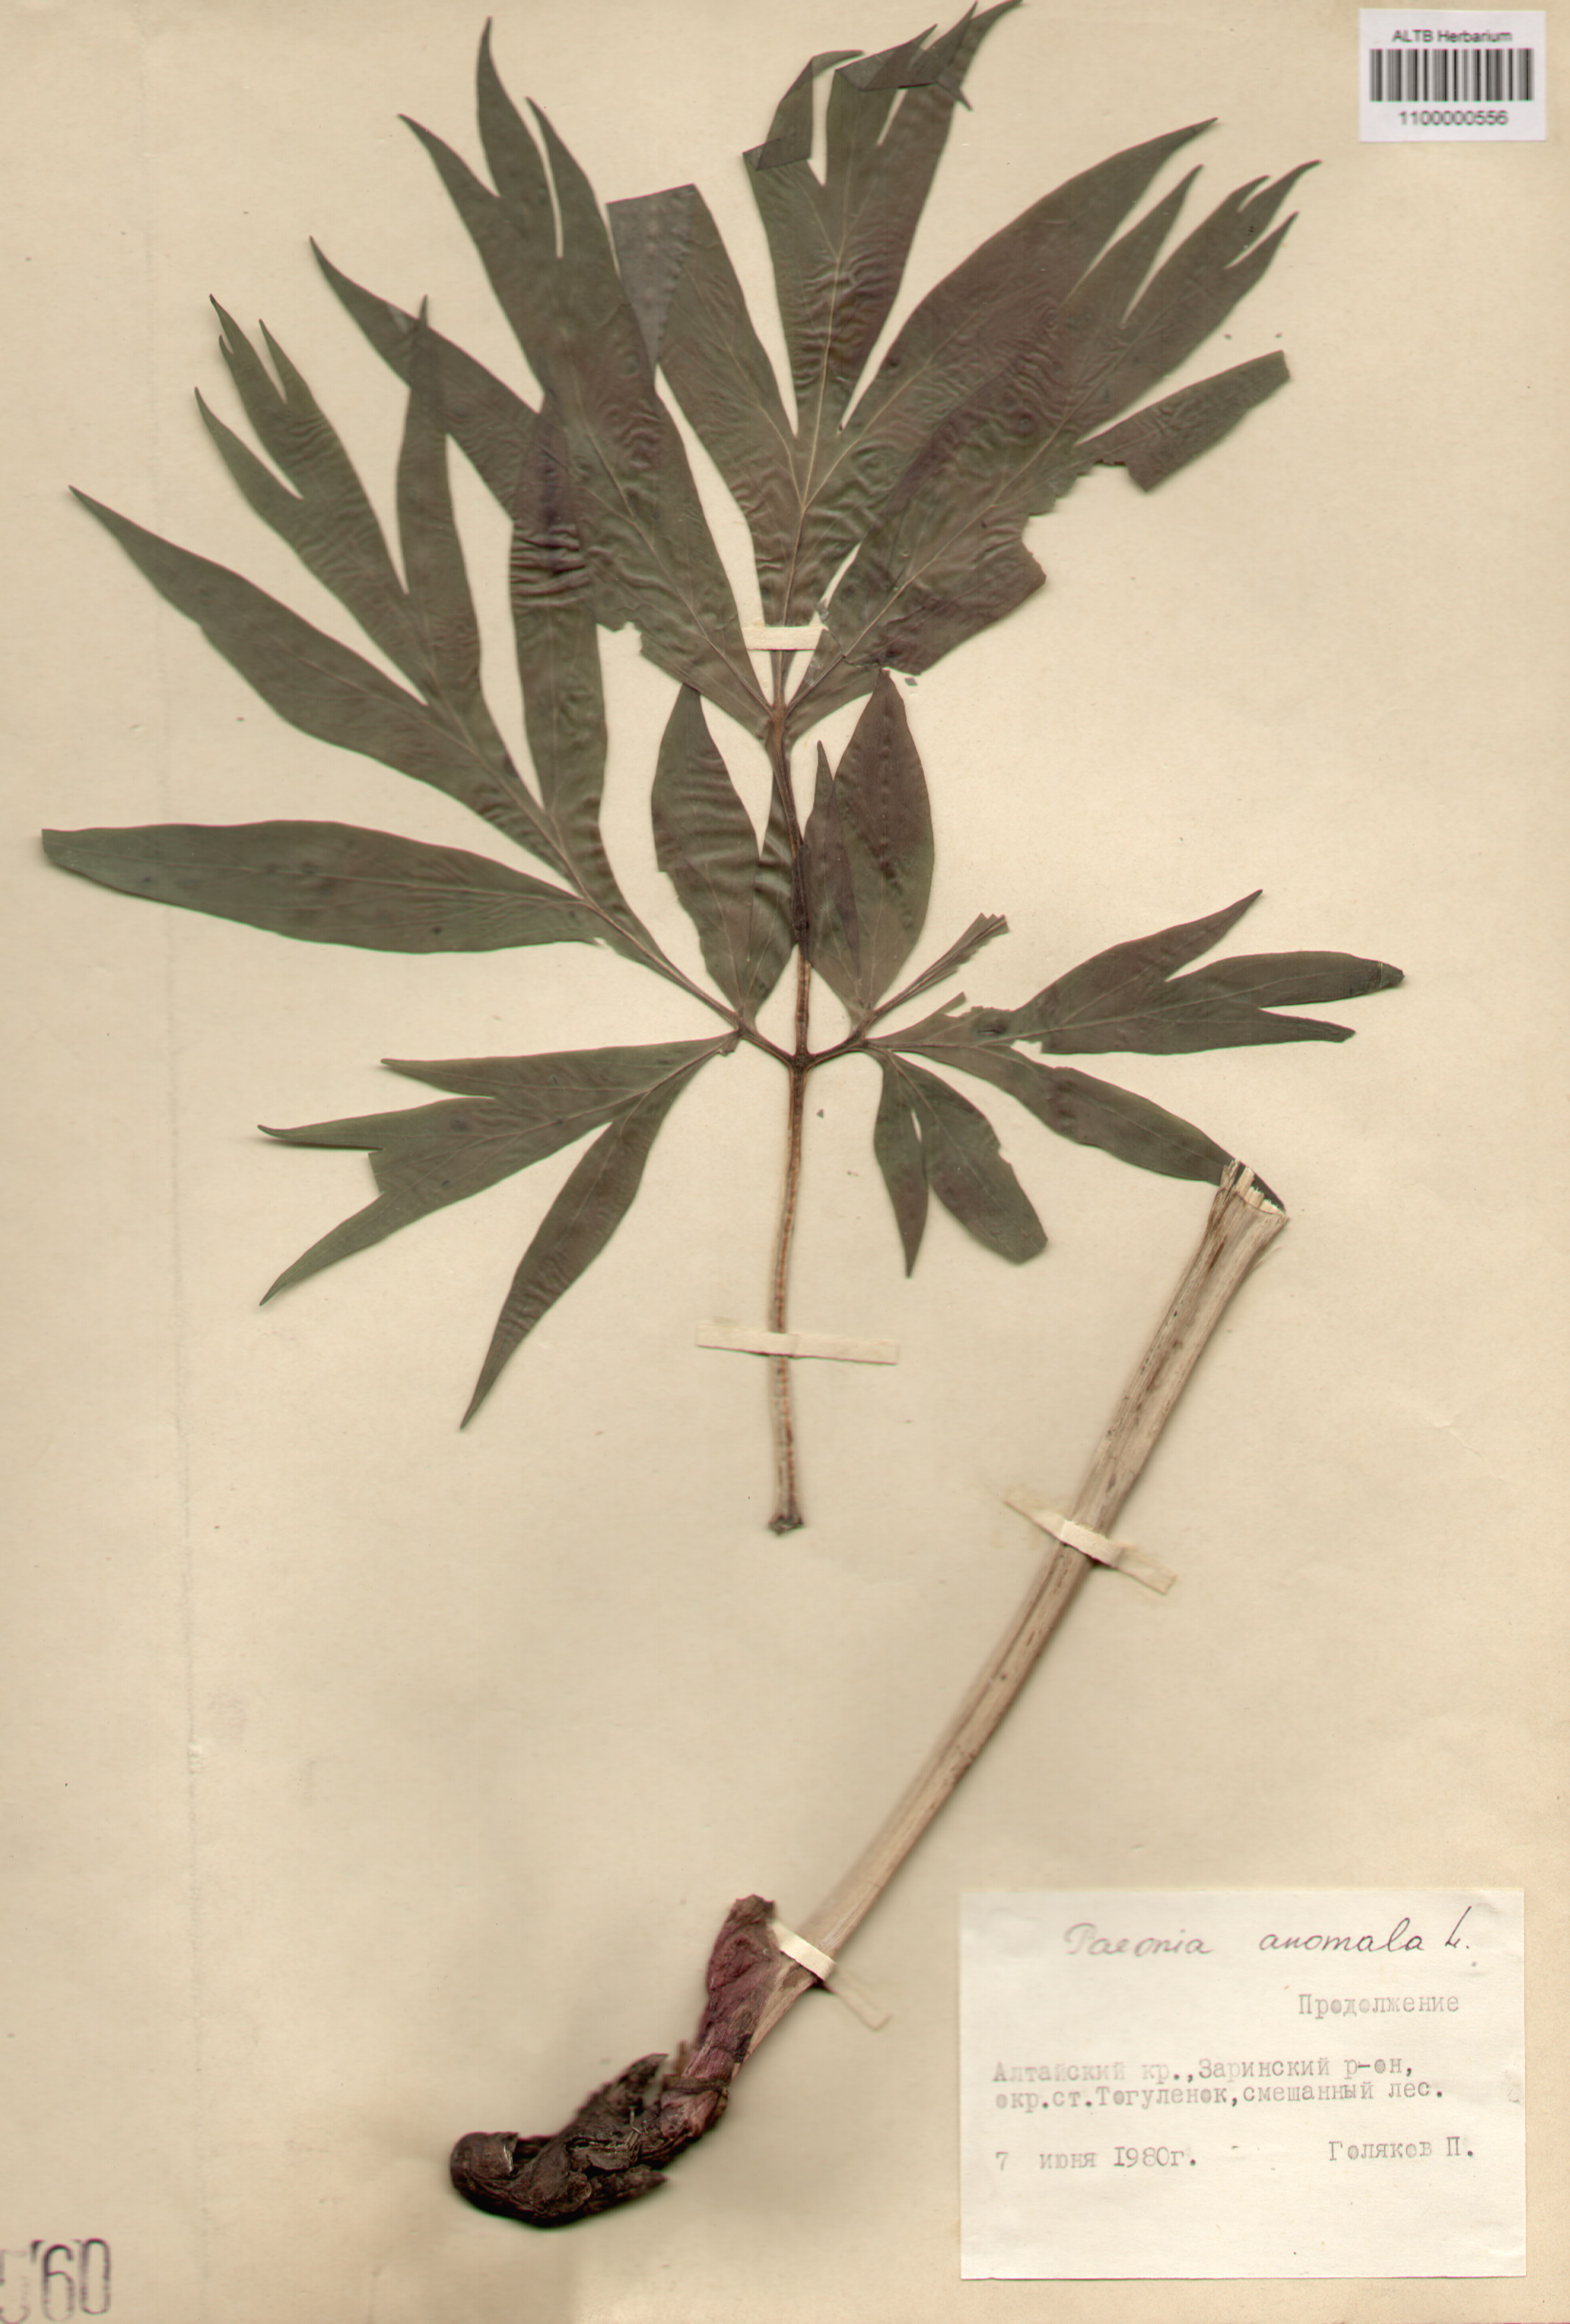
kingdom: Plantae
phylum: Tracheophyta
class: Magnoliopsida
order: Saxifragales
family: Paeoniaceae
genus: Paeonia
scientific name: Paeonia anomala
